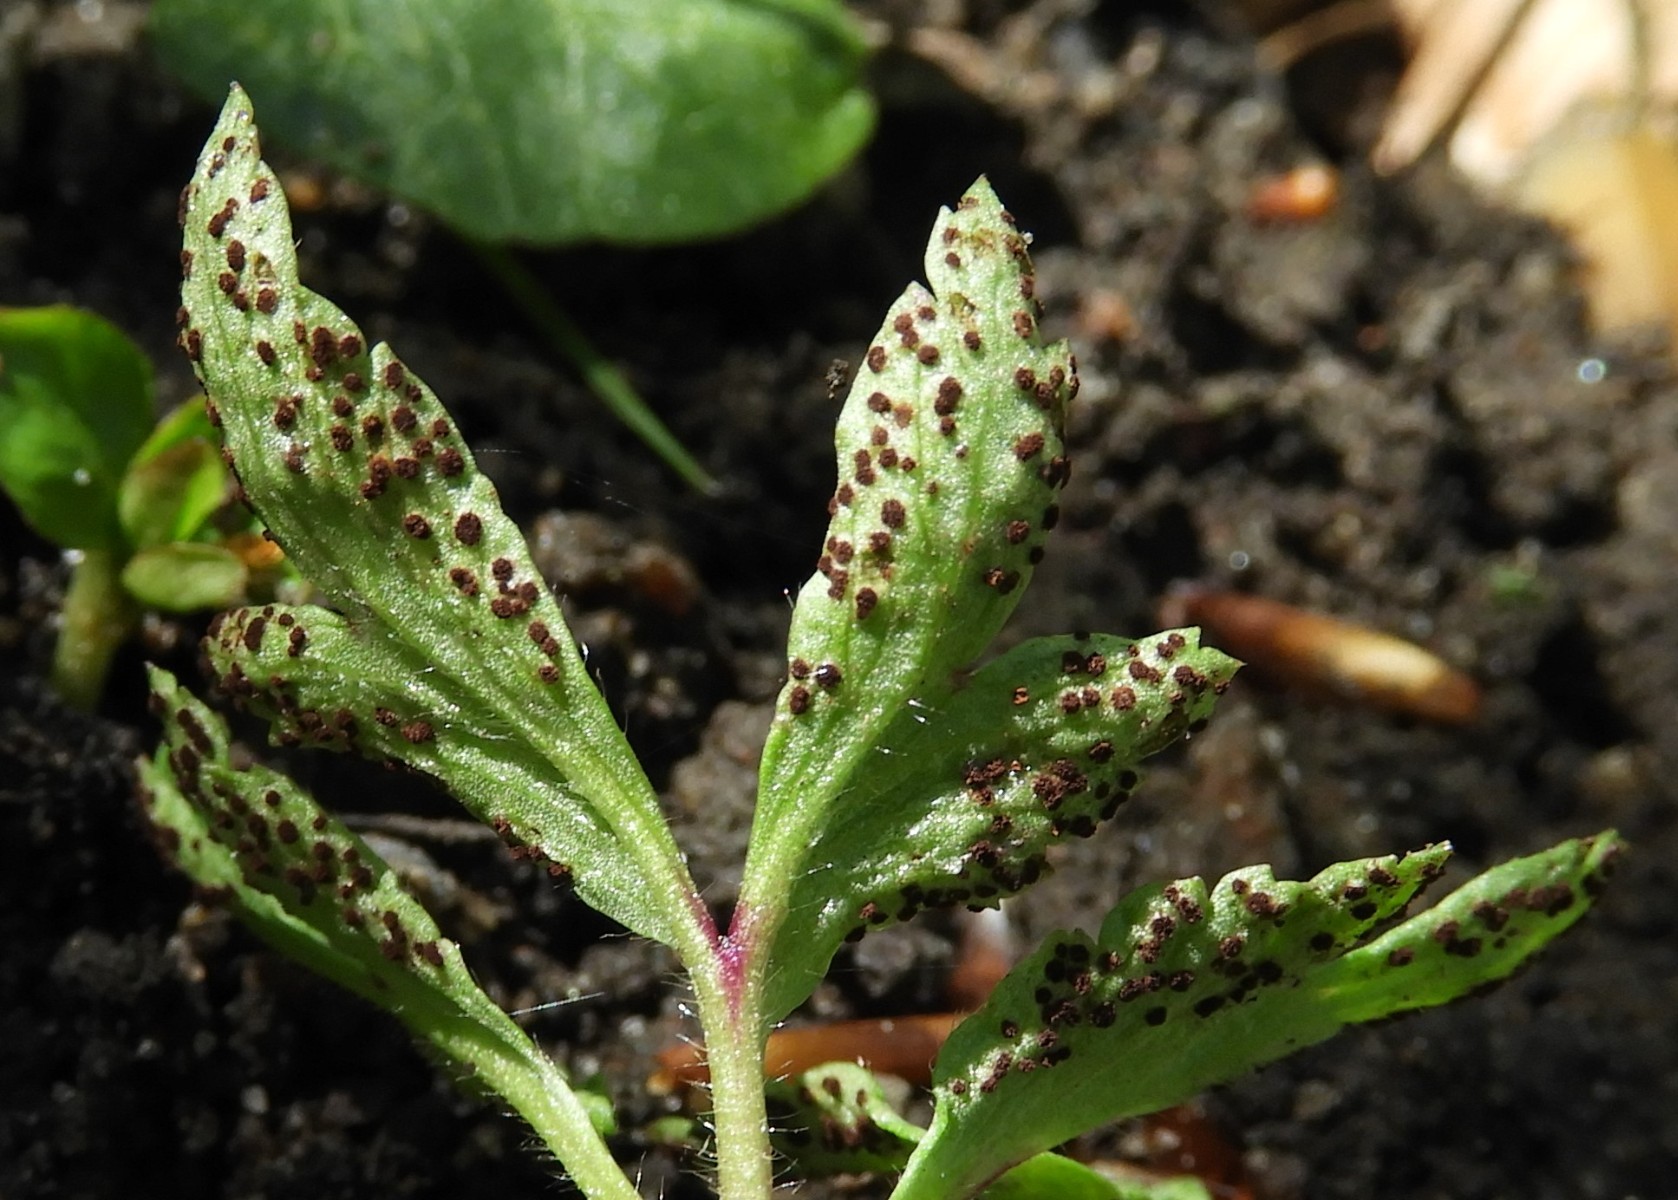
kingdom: Fungi
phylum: Basidiomycota
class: Pucciniomycetes
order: Pucciniales
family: Tranzscheliaceae
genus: Tranzschelia
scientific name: Tranzschelia anemones
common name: anemone-knæksporerust
